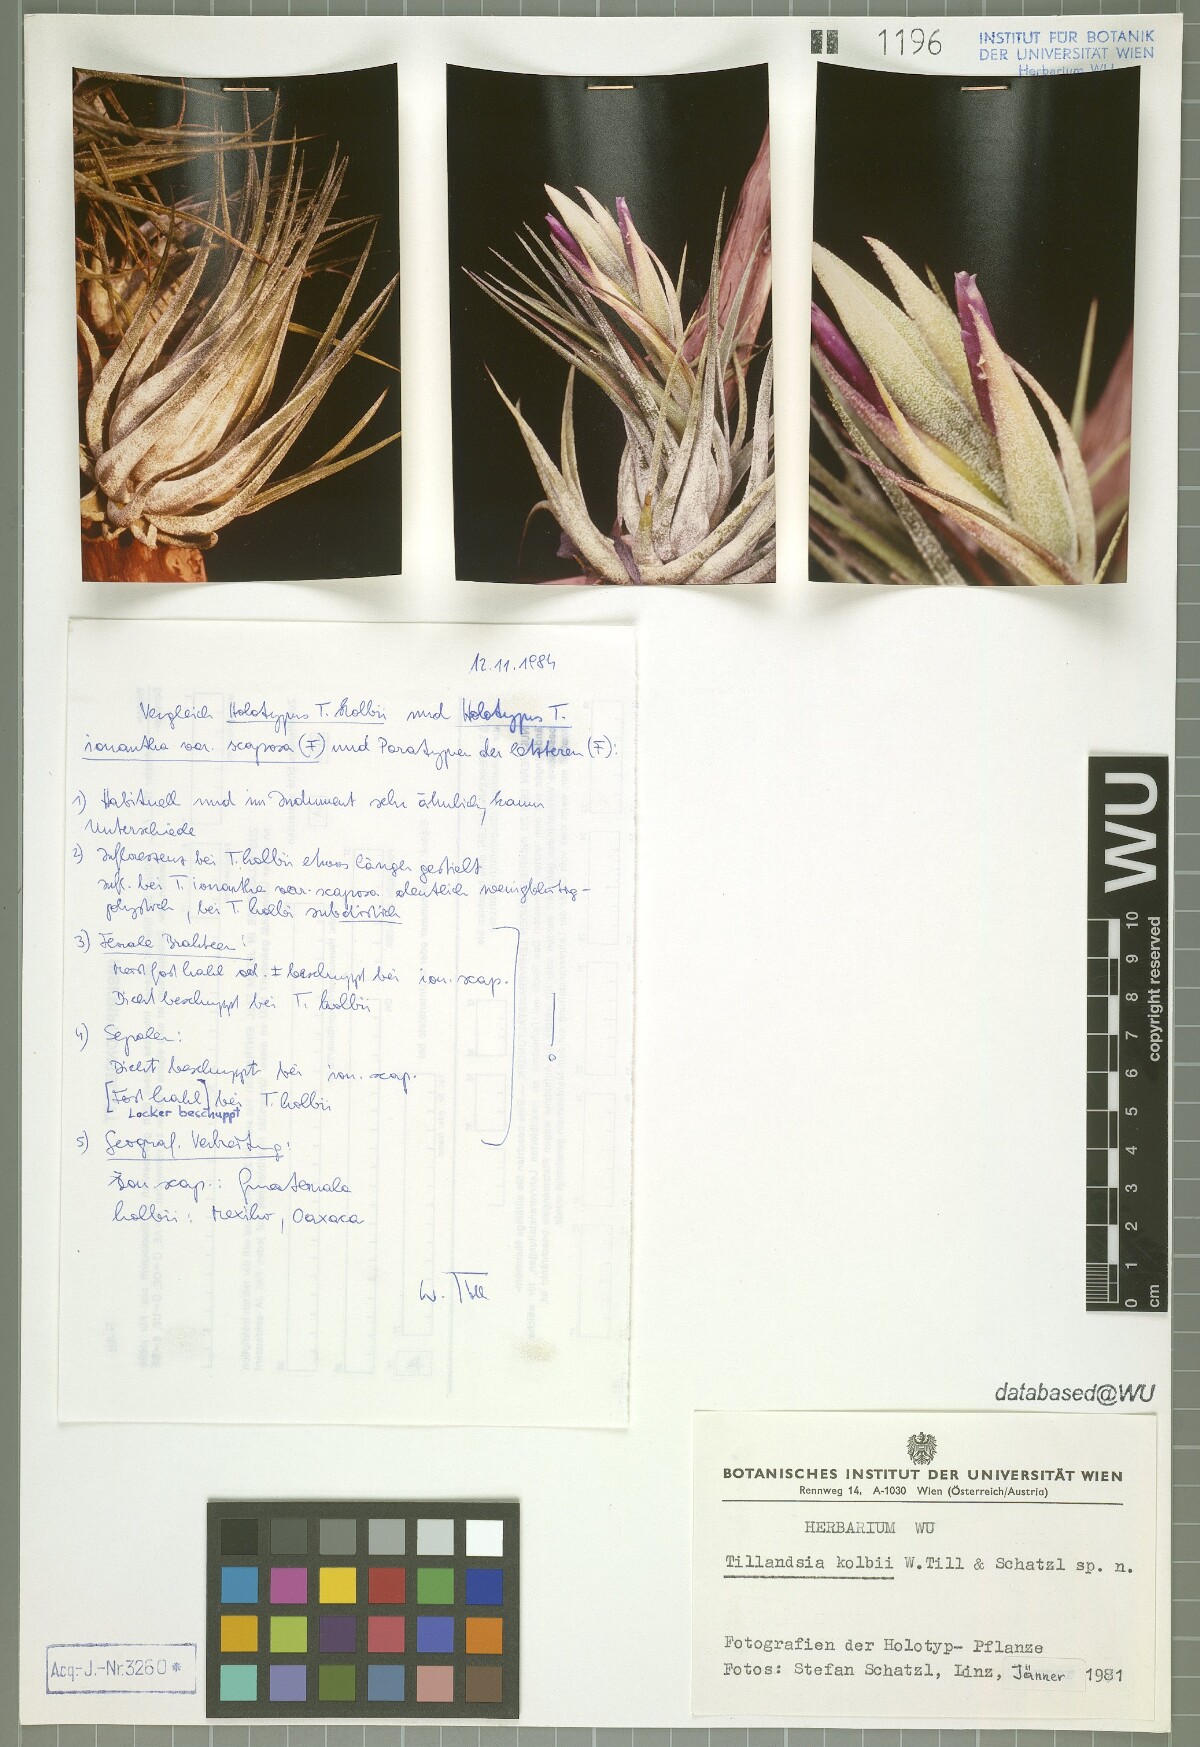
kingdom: Plantae
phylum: Tracheophyta
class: Liliopsida
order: Poales
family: Bromeliaceae
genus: Tillandsia
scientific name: Tillandsia kolbii
